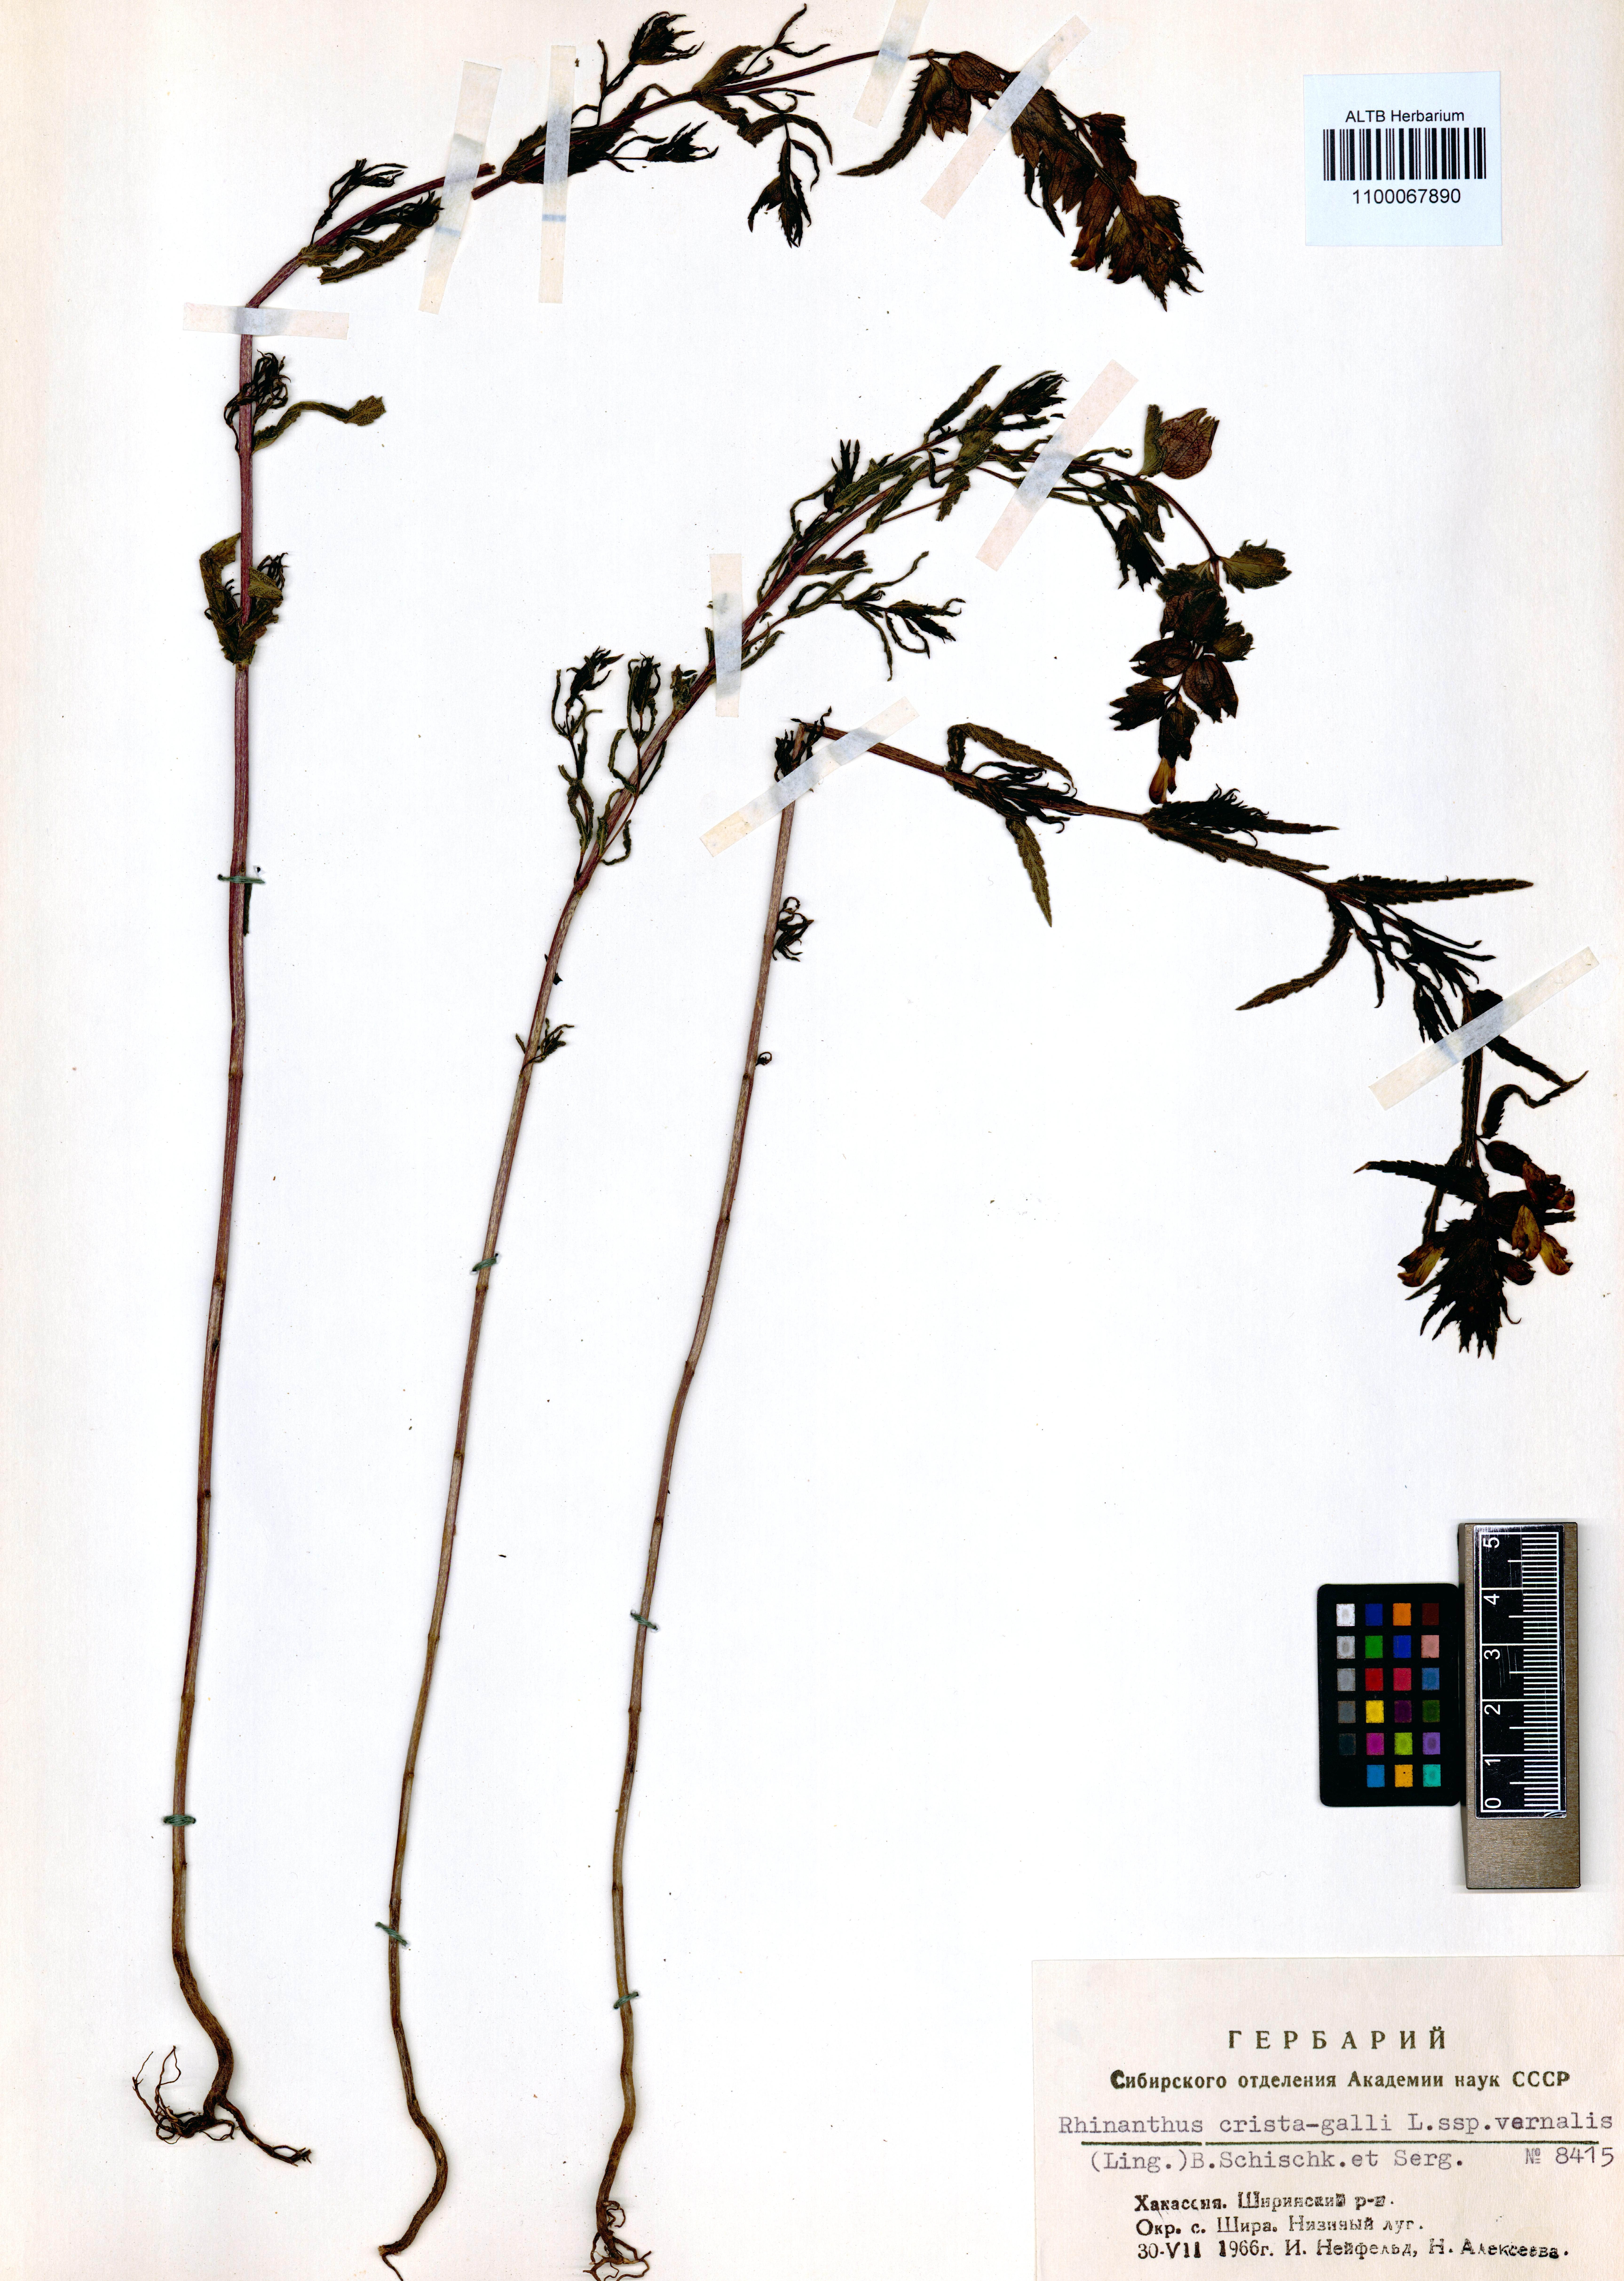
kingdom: Plantae
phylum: Tracheophyta
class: Magnoliopsida
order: Lamiales
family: Orobanchaceae
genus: Rhinanthus
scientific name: Rhinanthus minor
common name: Yellow-rattle
